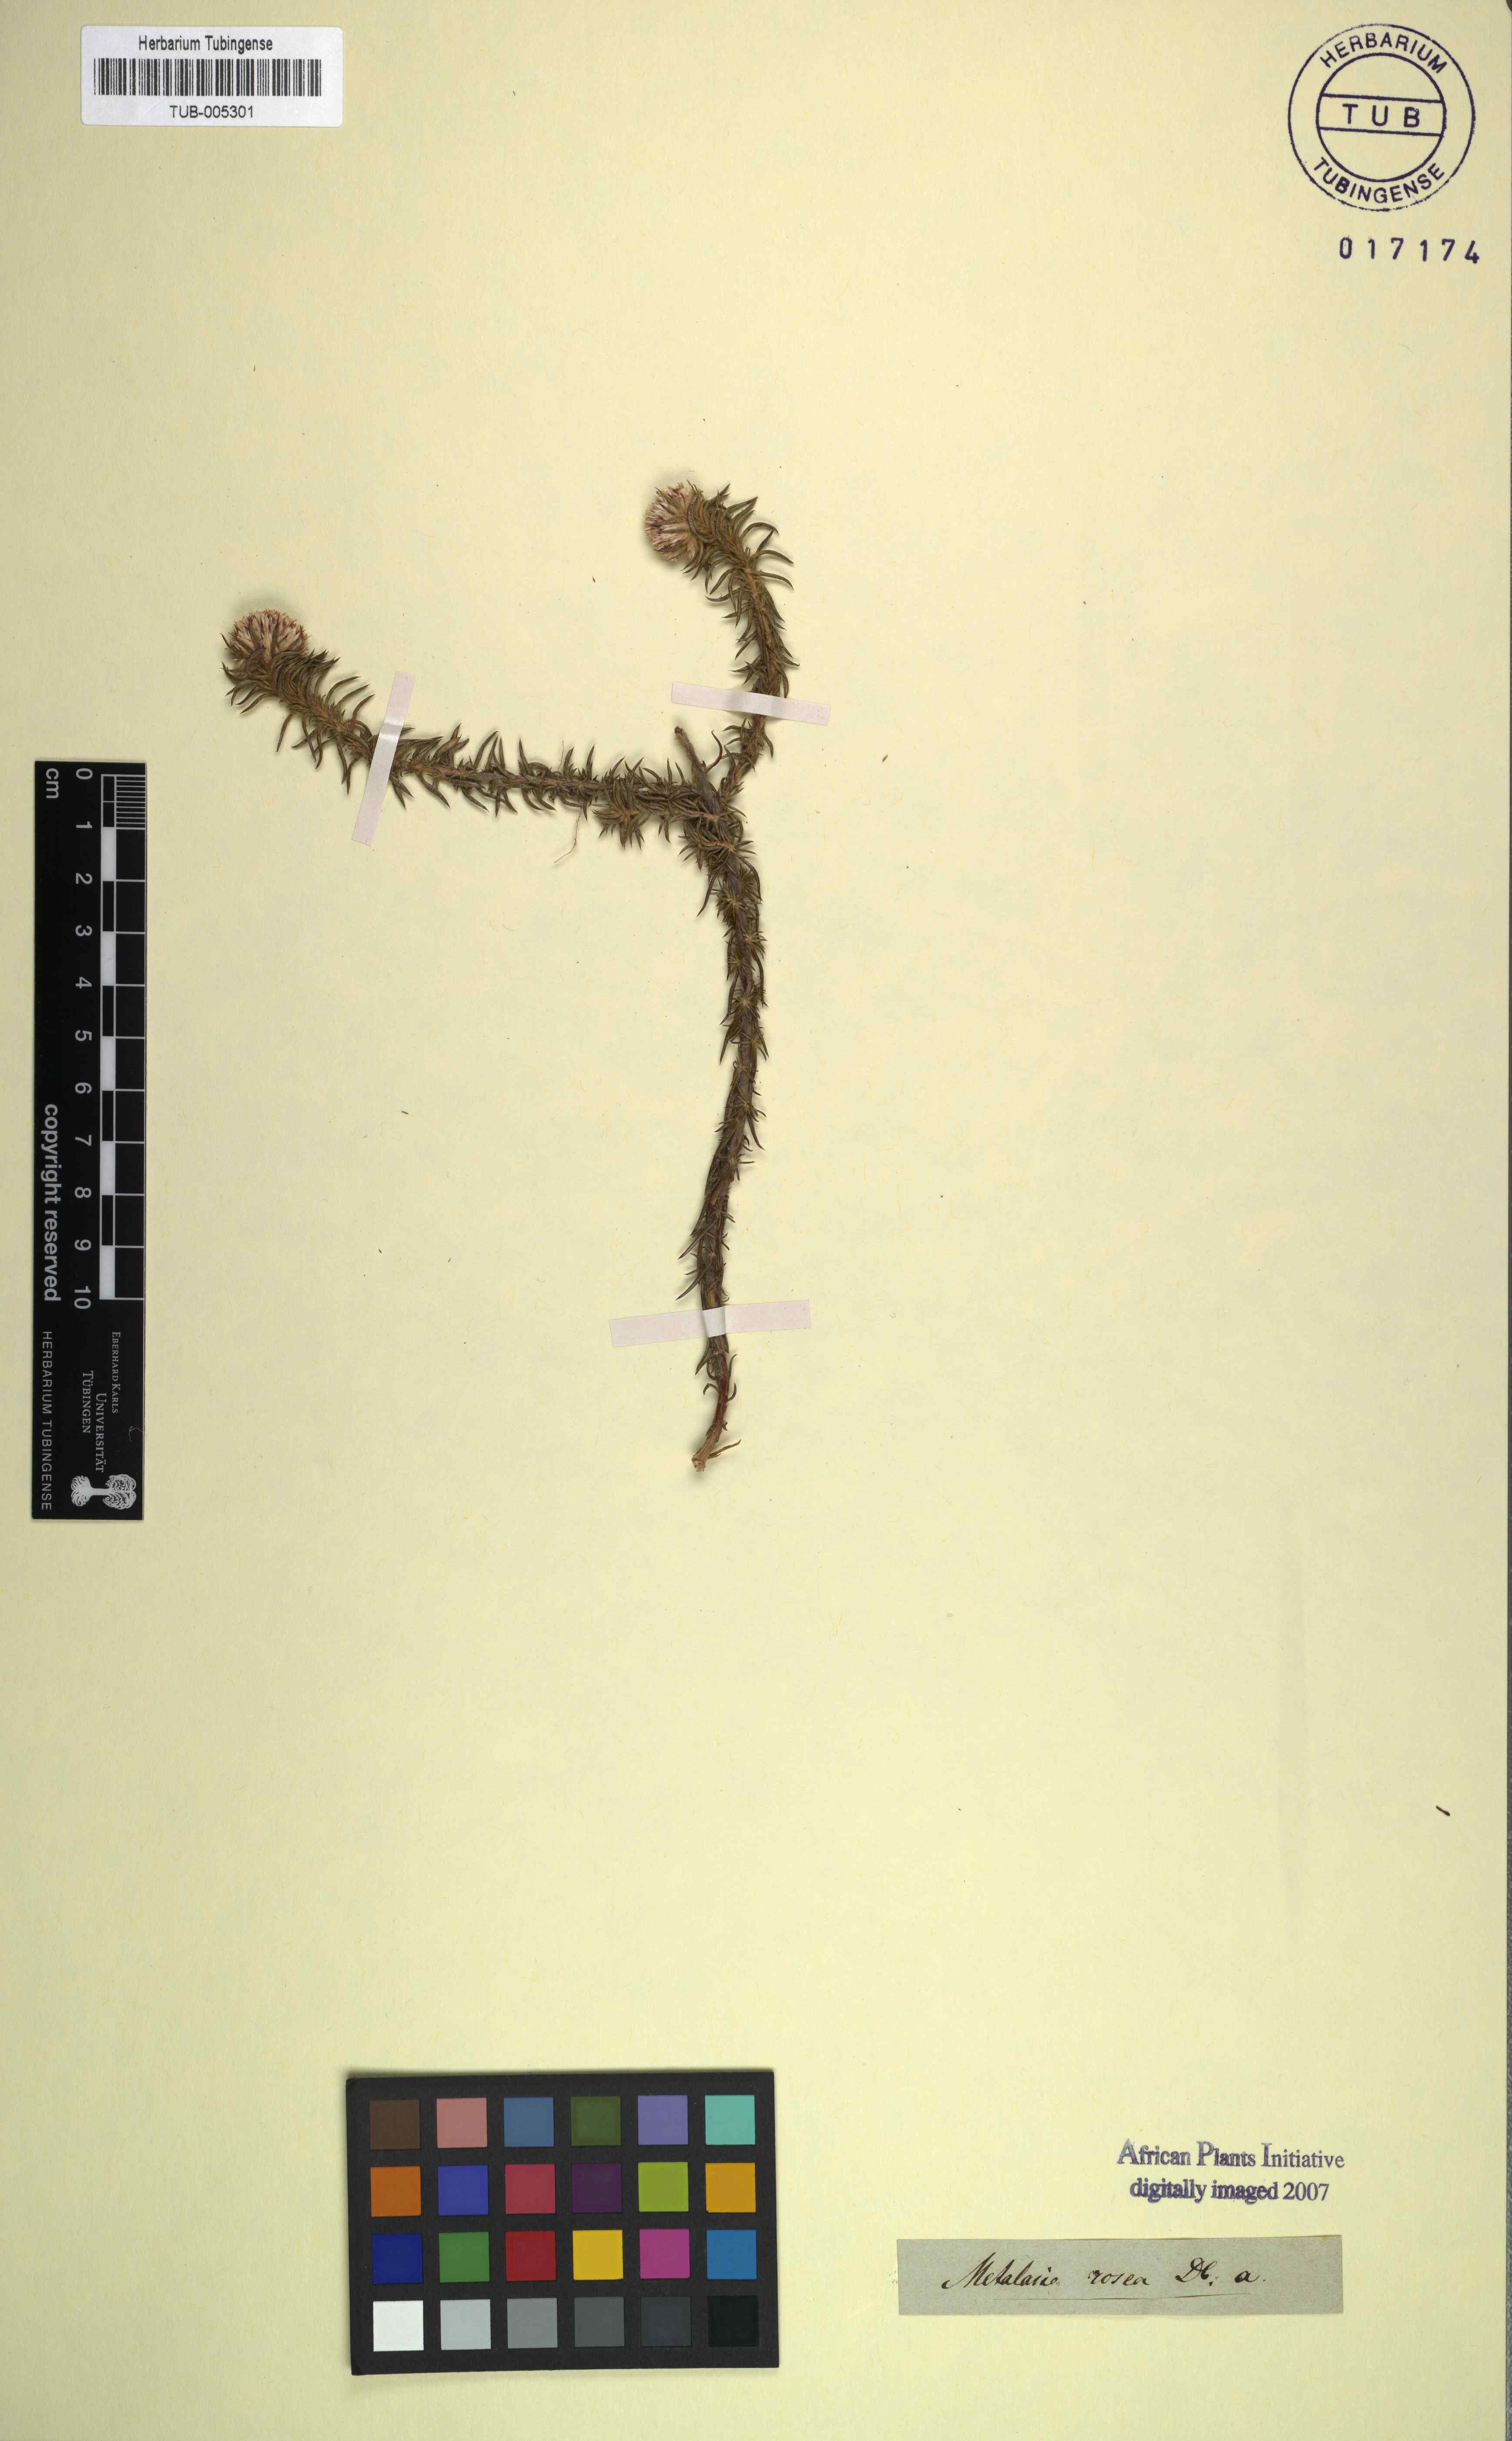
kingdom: Plantae
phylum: Tracheophyta
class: Magnoliopsida
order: Asterales
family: Asteraceae
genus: Metalasia
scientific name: Metalasia cephalotes
